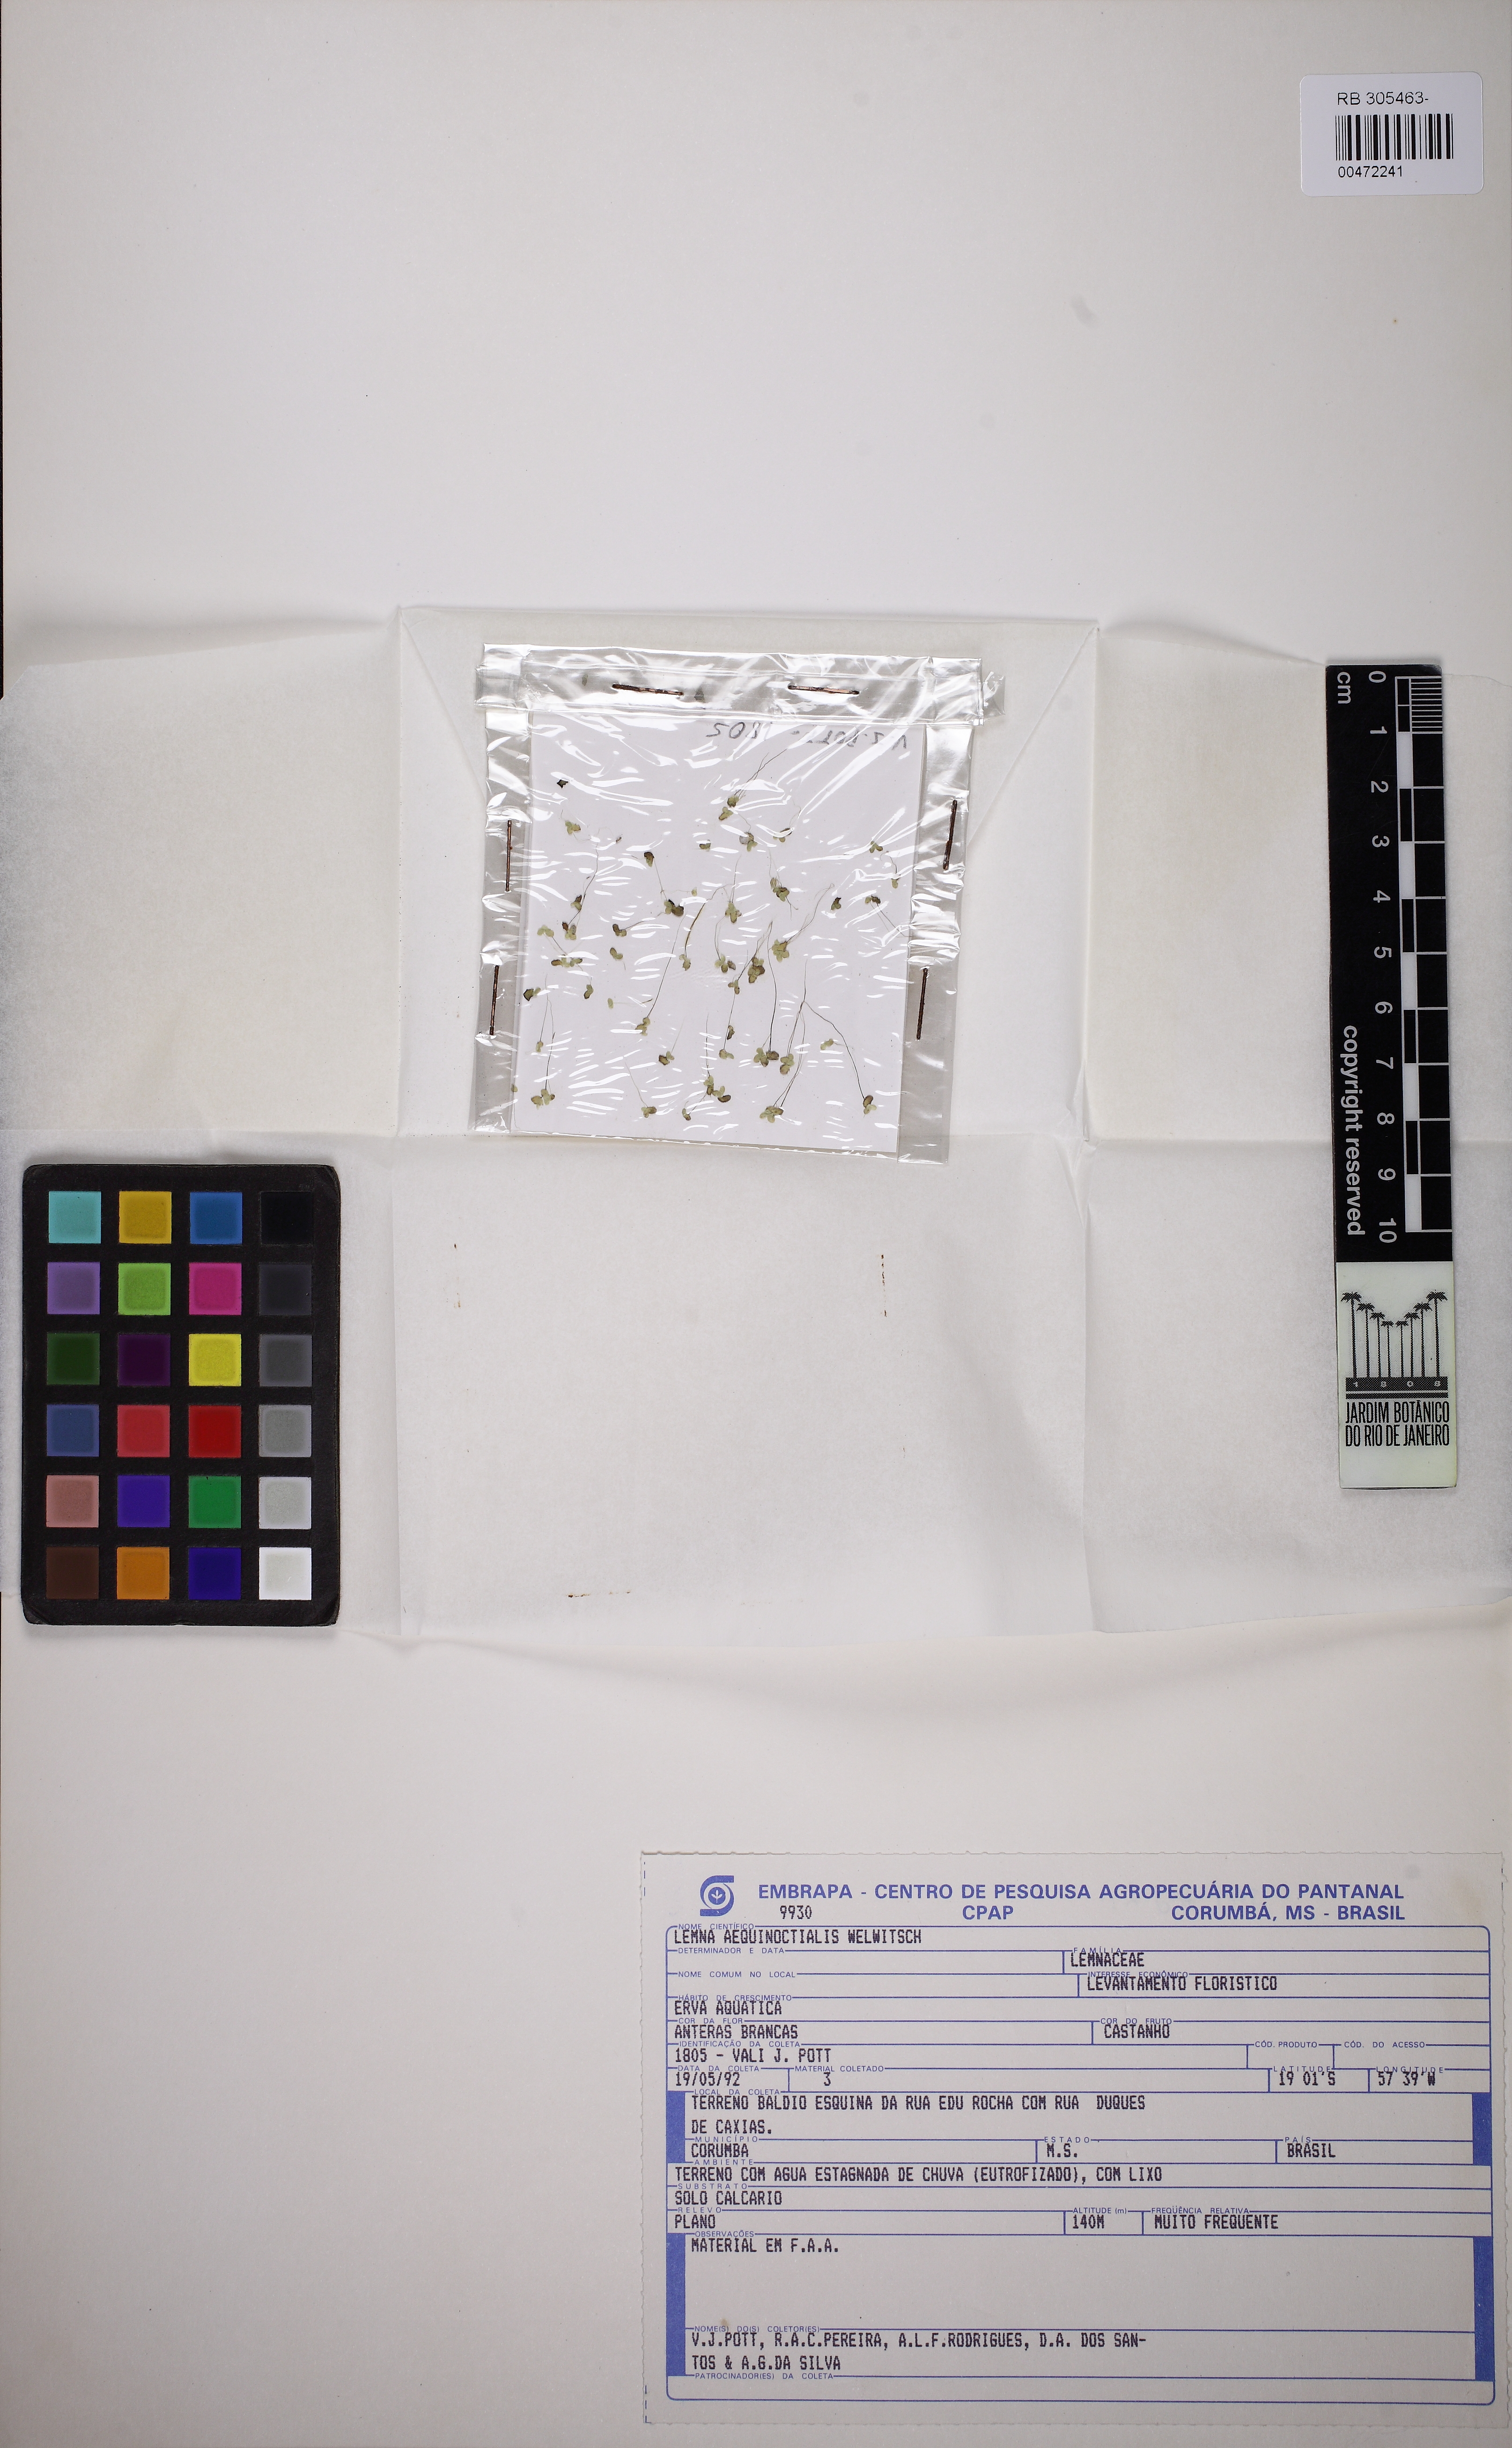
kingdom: Plantae
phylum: Tracheophyta
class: Liliopsida
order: Alismatales
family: Araceae
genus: Lemna
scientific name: Lemna aequinoctialis
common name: Duckweed
